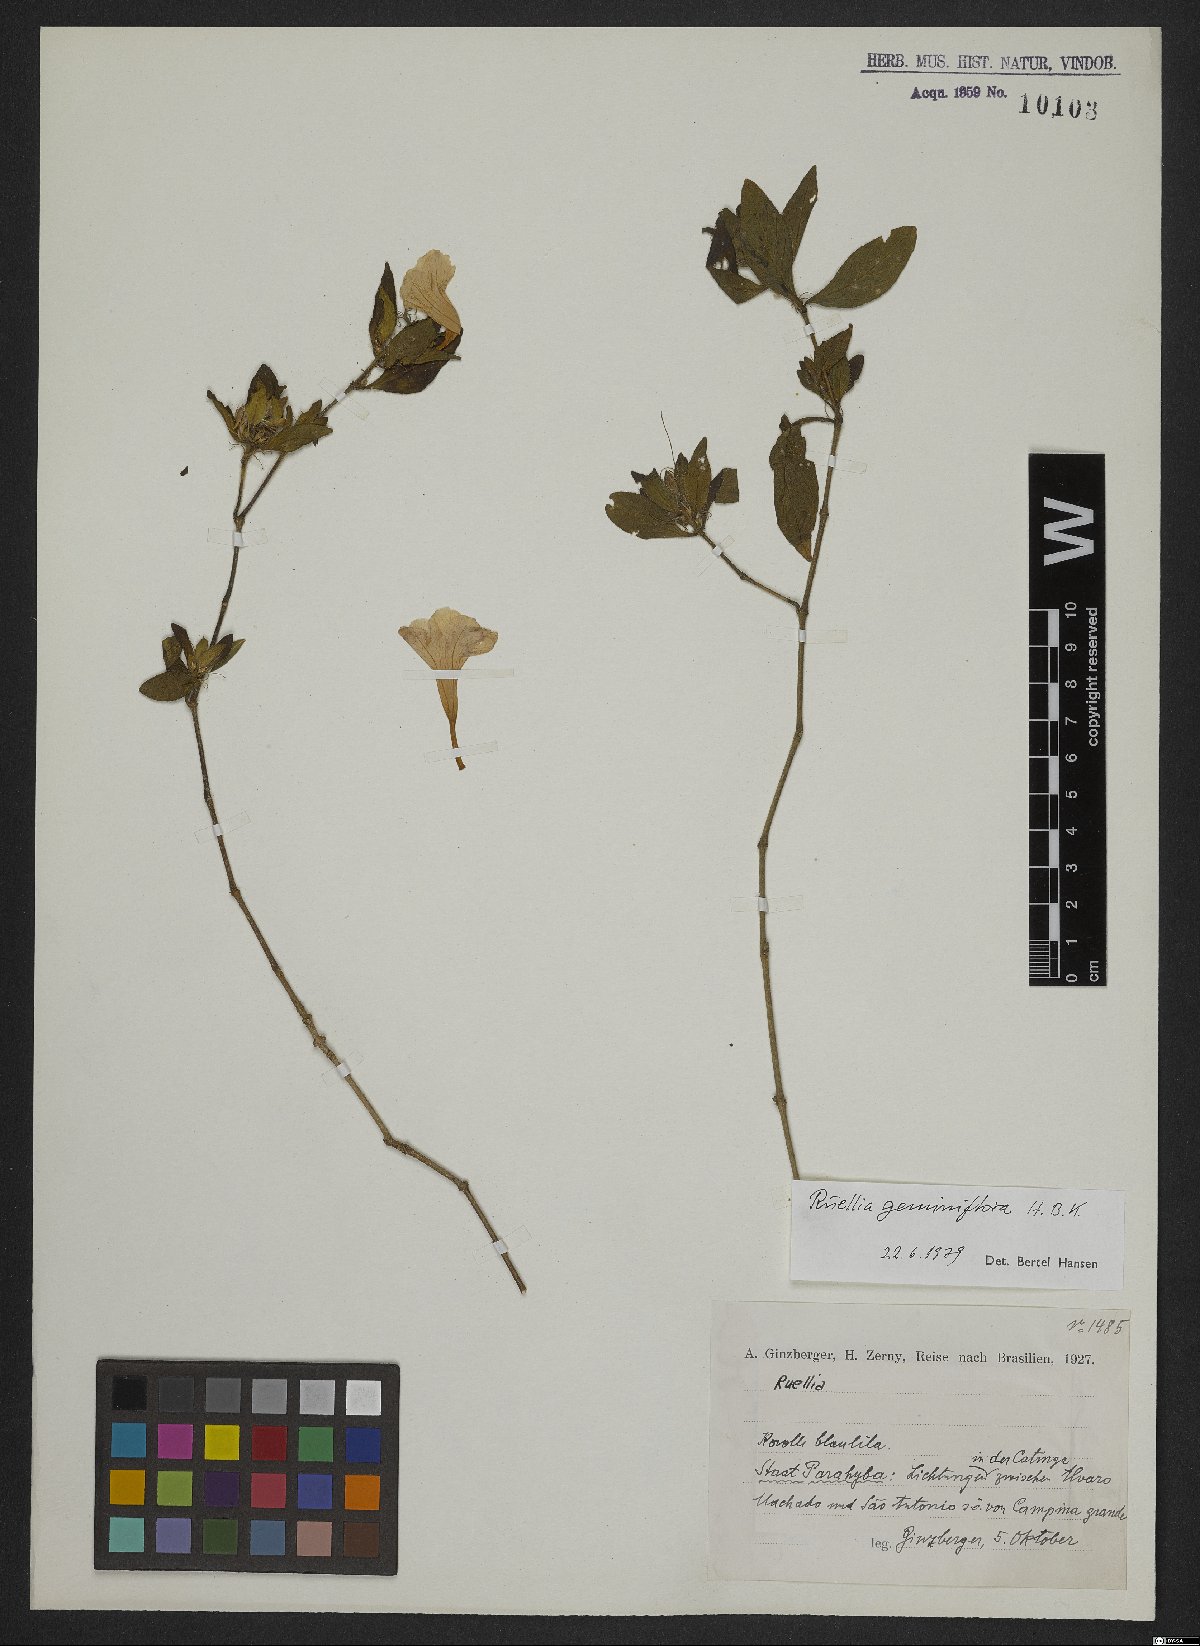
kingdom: Plantae
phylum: Tracheophyta
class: Magnoliopsida
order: Lamiales
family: Acanthaceae
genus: Ruellia
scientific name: Ruellia geminiflora
